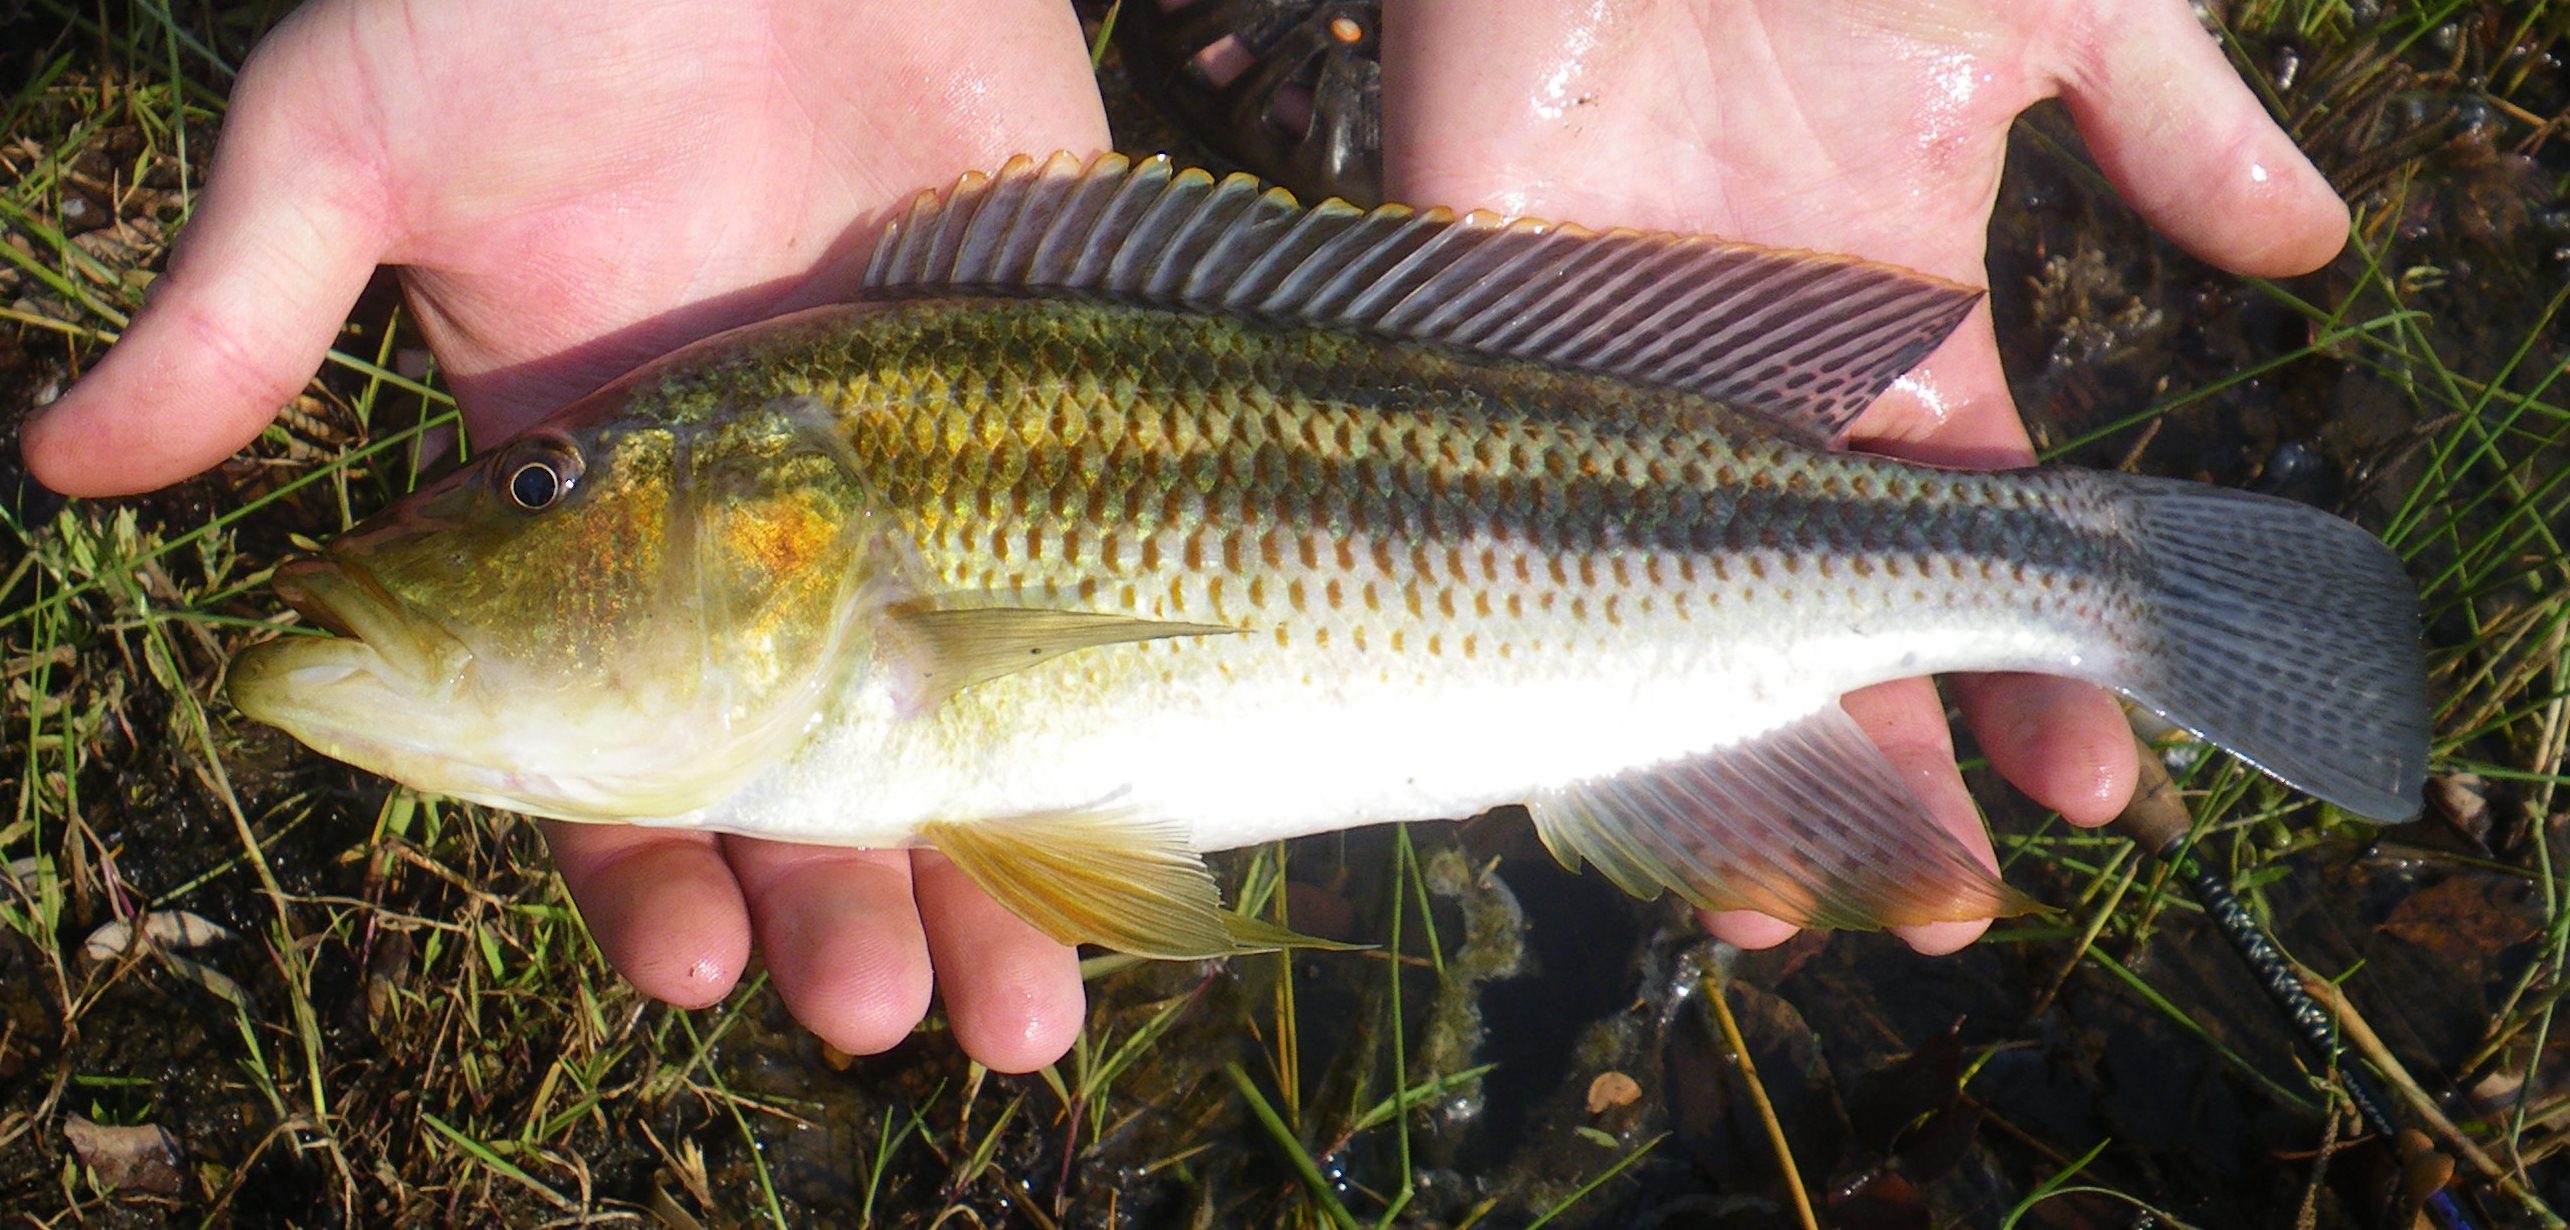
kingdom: Animalia
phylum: Chordata
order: Perciformes
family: Cichlidae
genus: Serranochromis
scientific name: Serranochromis thumbergi
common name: Brownspot largemouth
